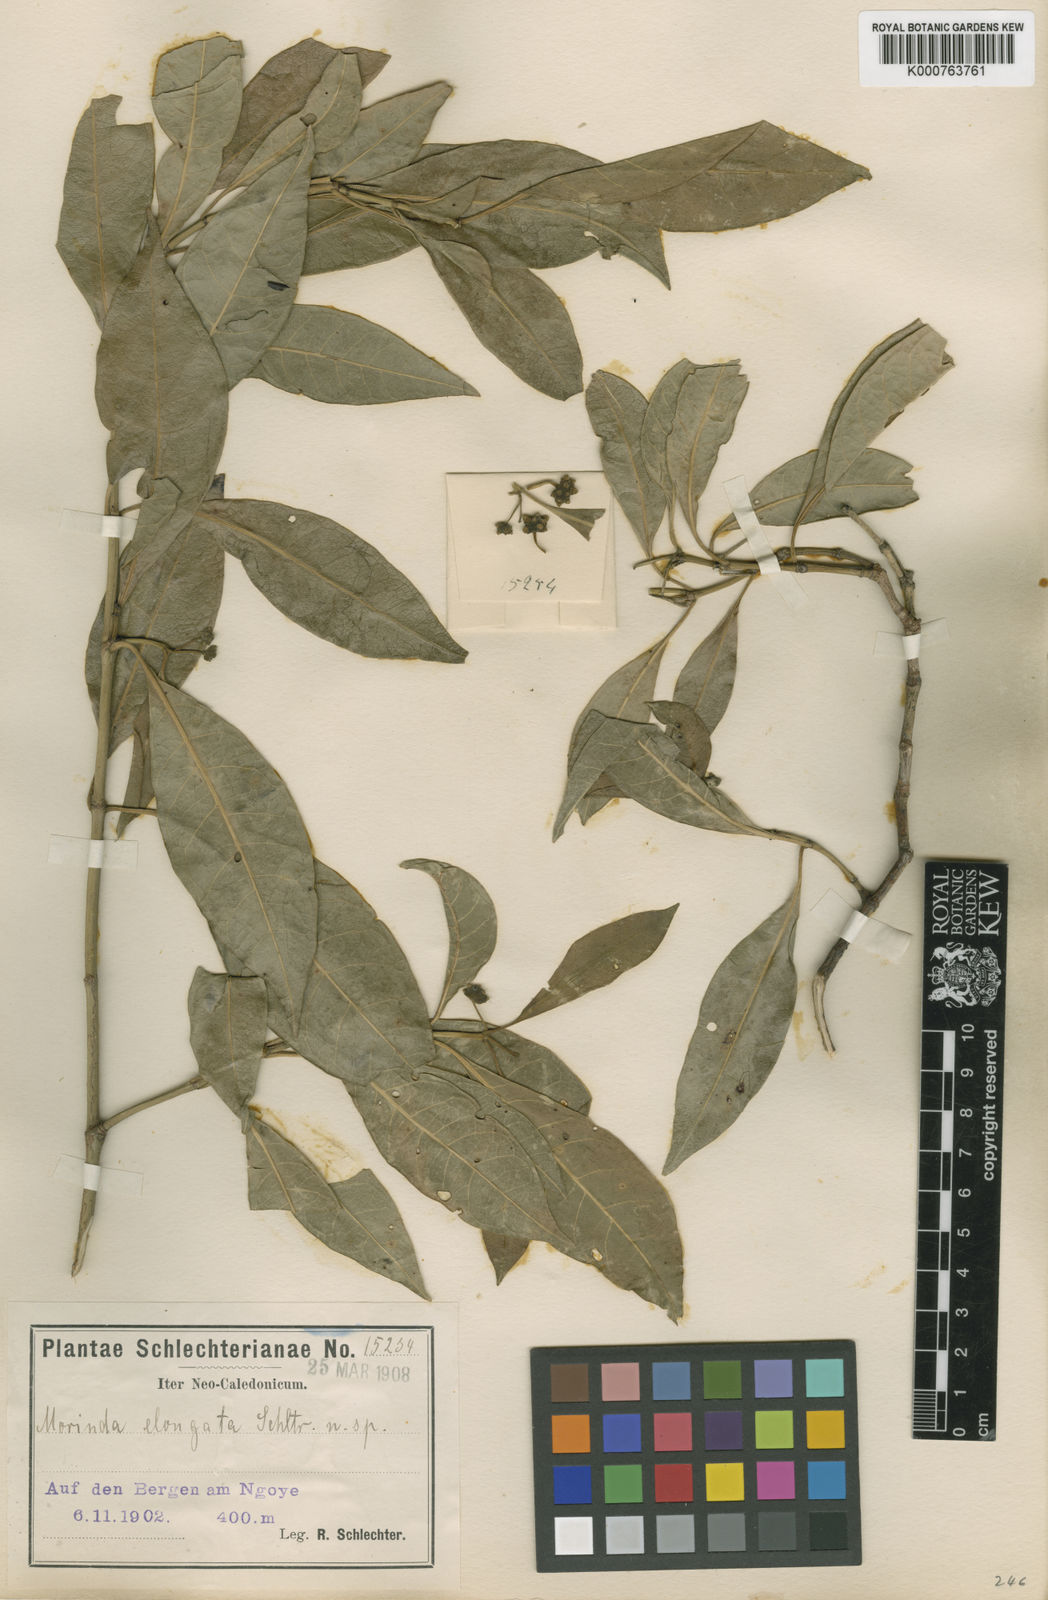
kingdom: Plantae
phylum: Tracheophyta
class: Magnoliopsida
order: Gentianales
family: Rubiaceae
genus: Gynochthodes
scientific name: Gynochthodes collina
